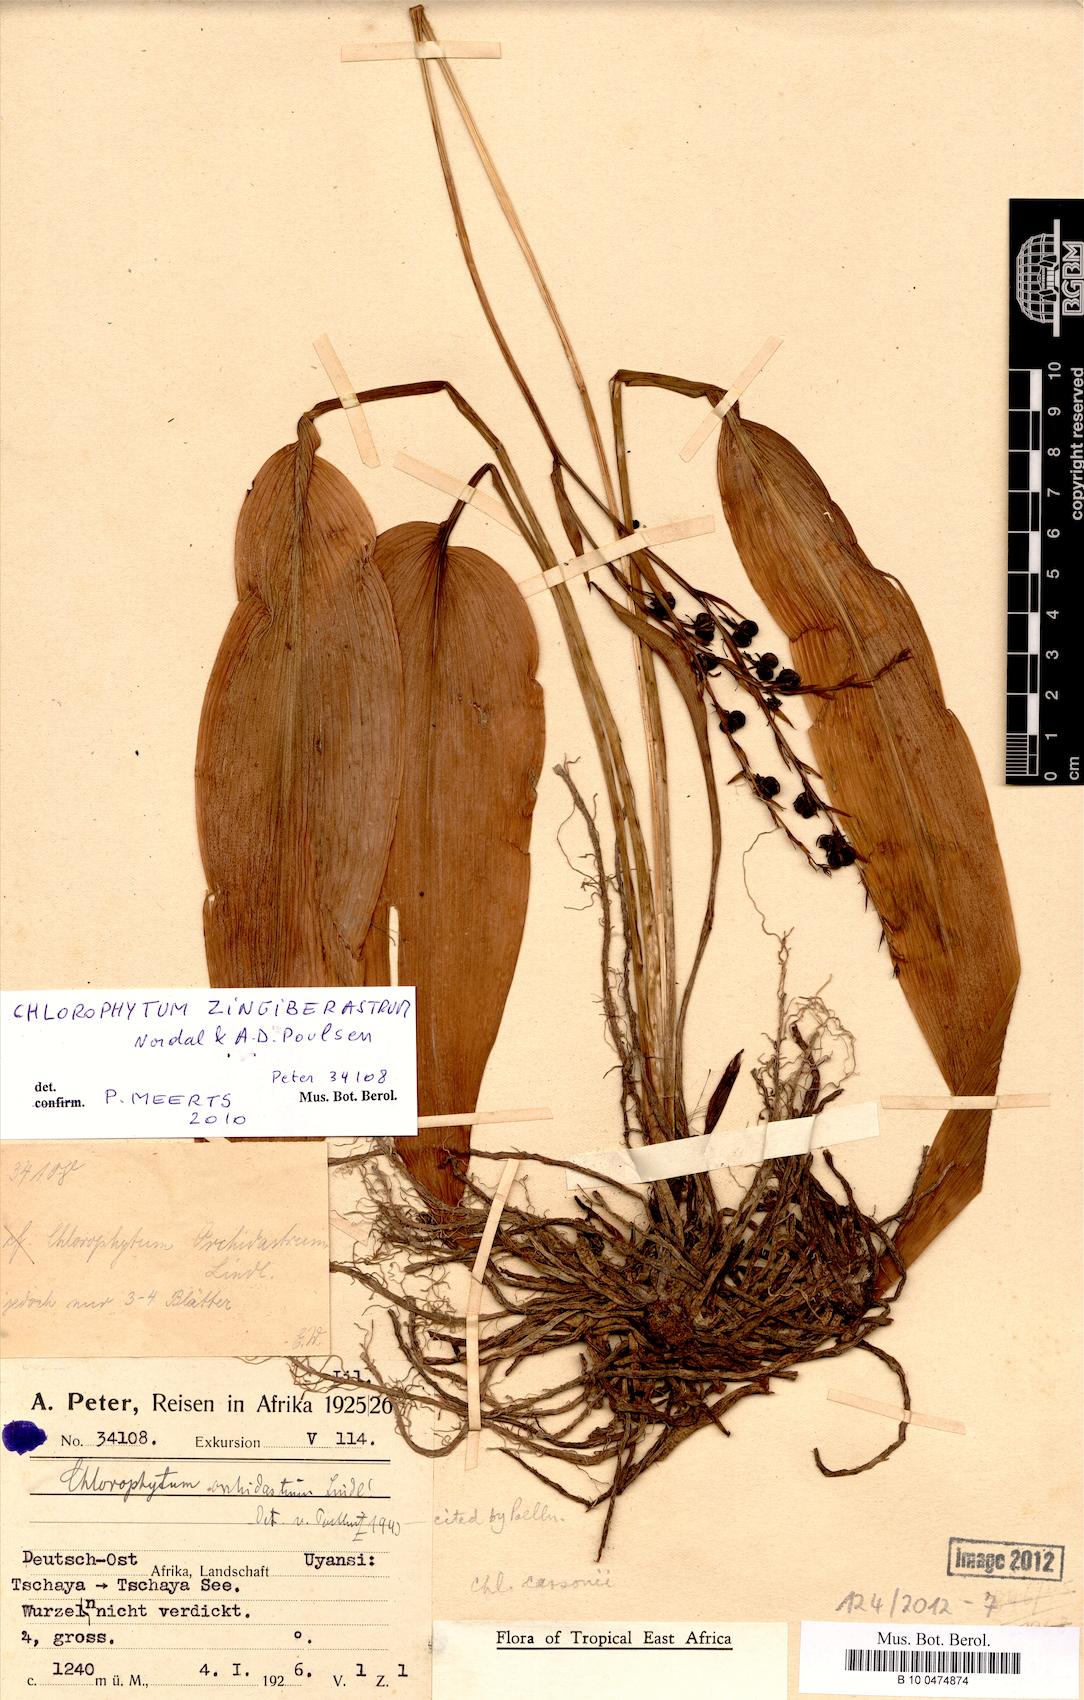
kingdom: Plantae
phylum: Tracheophyta
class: Liliopsida
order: Asparagales
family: Asparagaceae
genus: Chlorophytum
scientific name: Chlorophytum zingiberastrum
